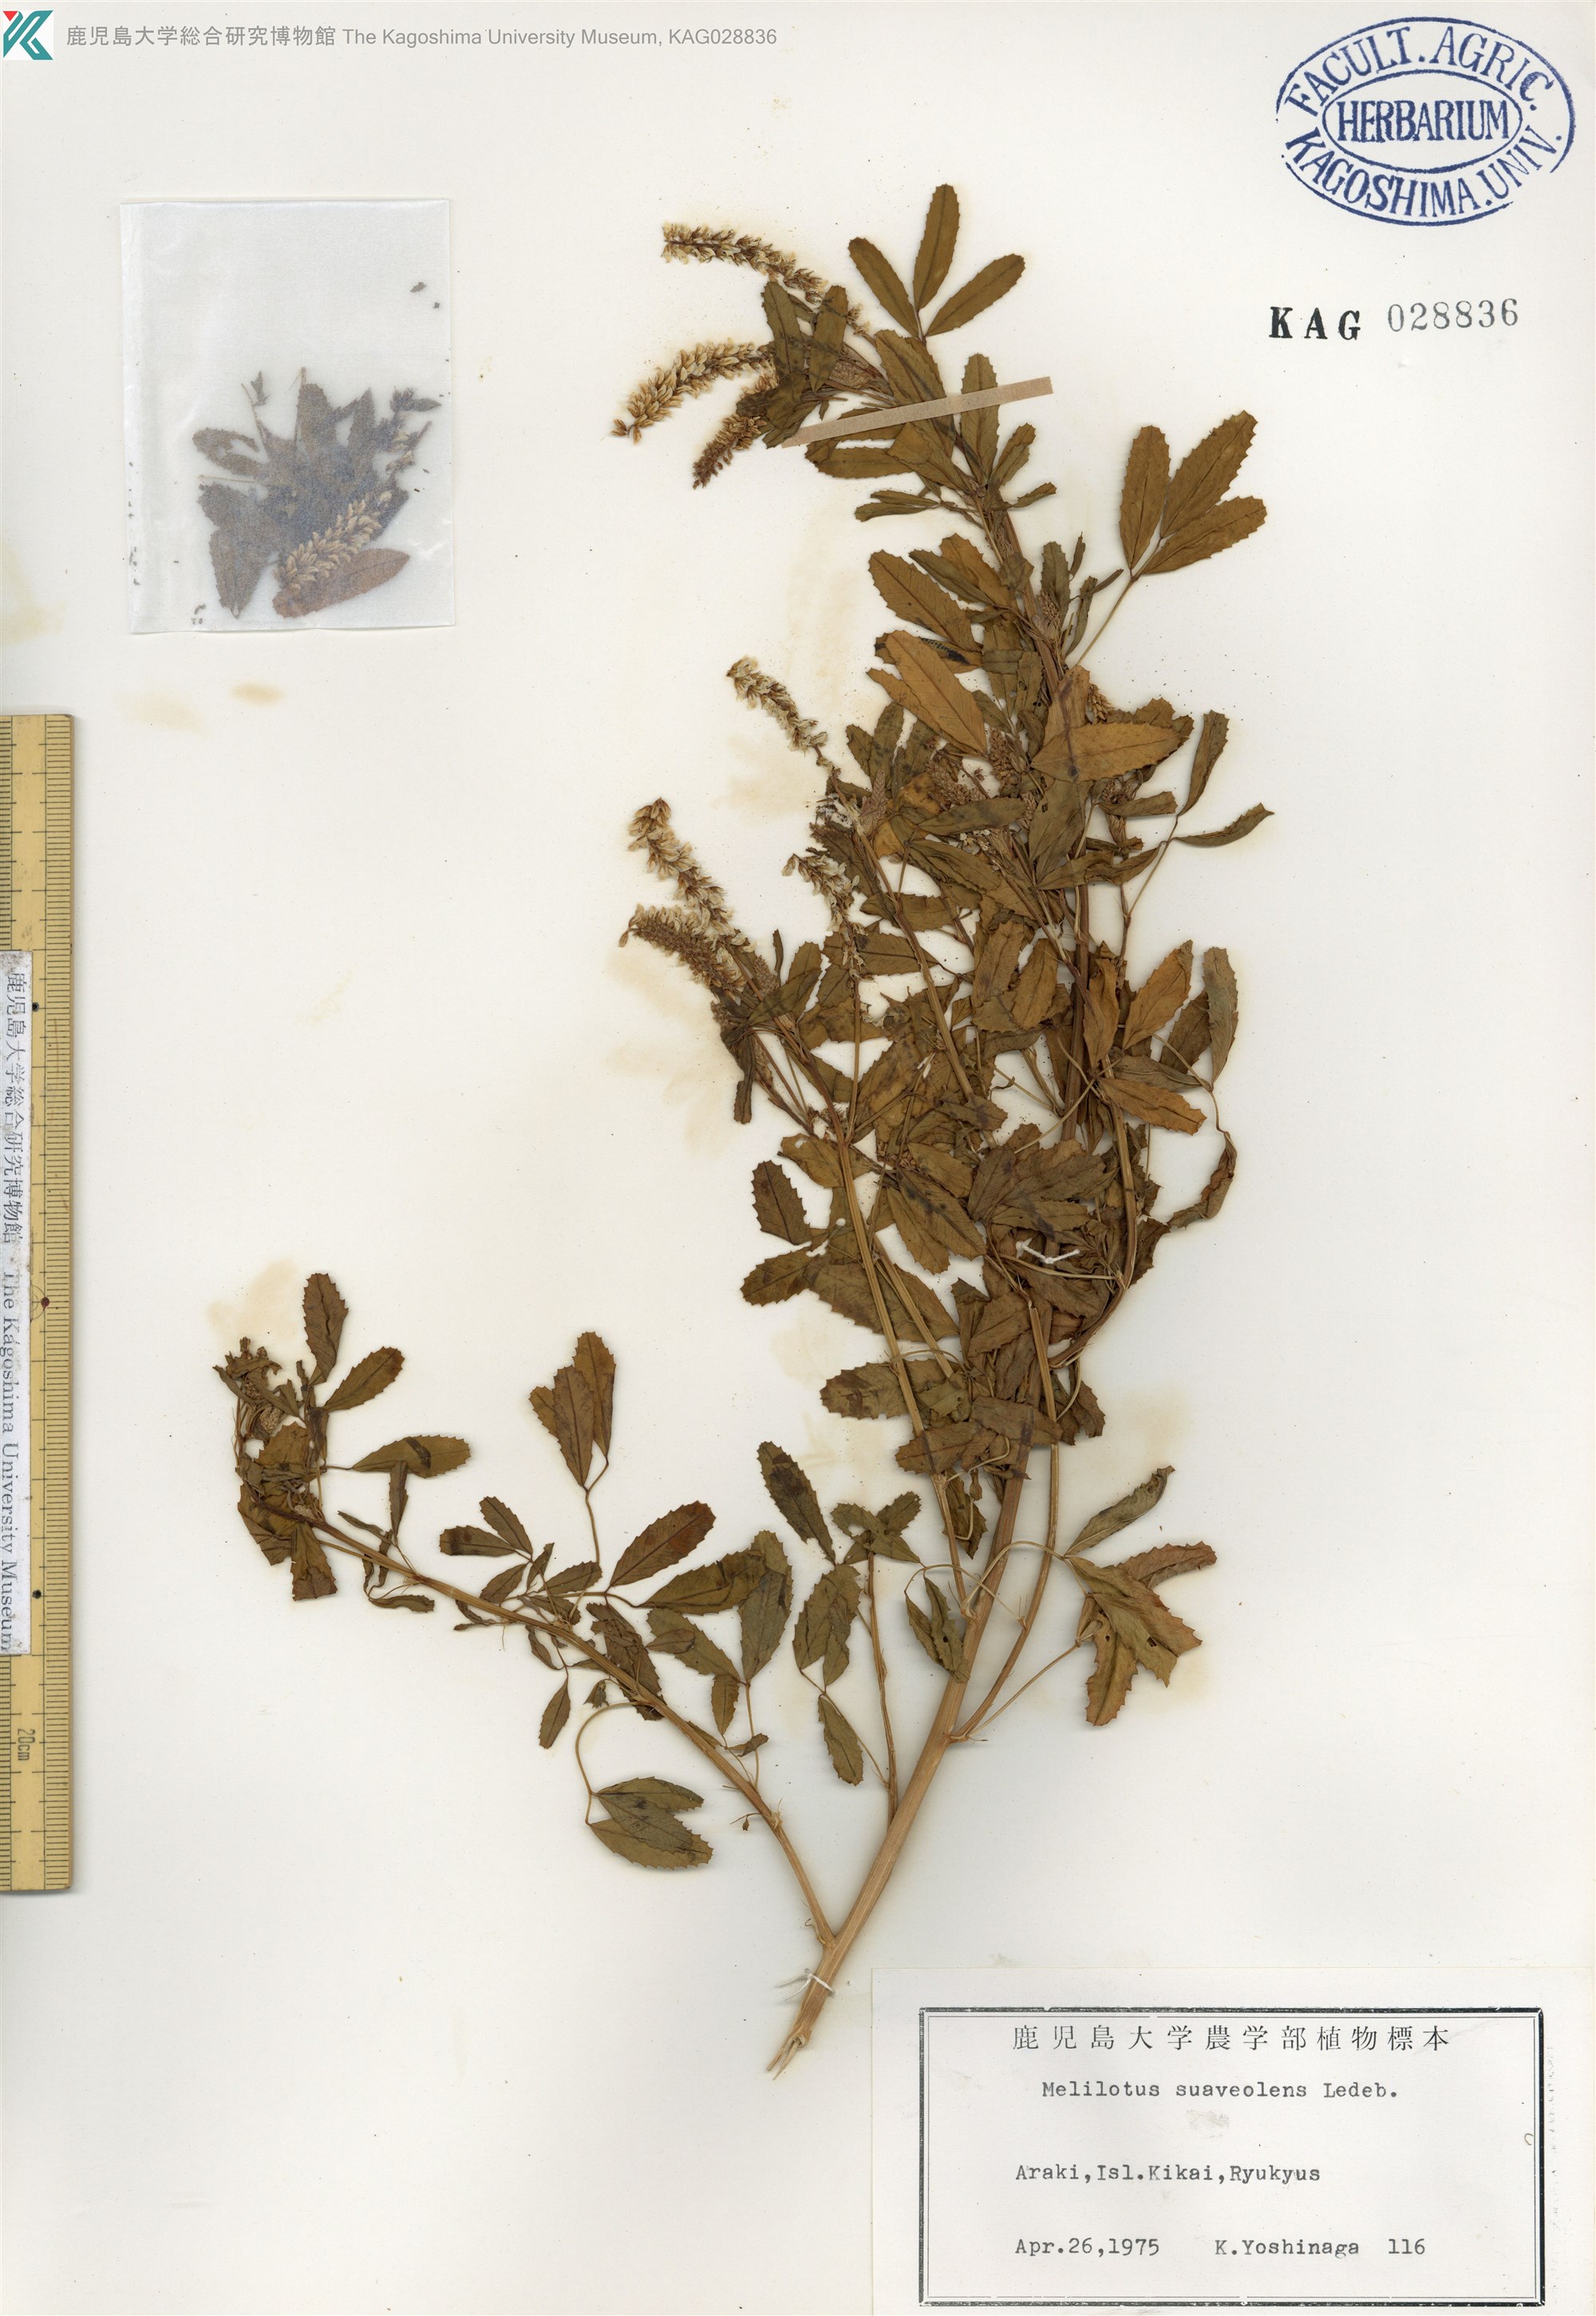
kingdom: Plantae
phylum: Tracheophyta
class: Magnoliopsida
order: Fabales
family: Fabaceae
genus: Melilotus
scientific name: Melilotus suaveolens
